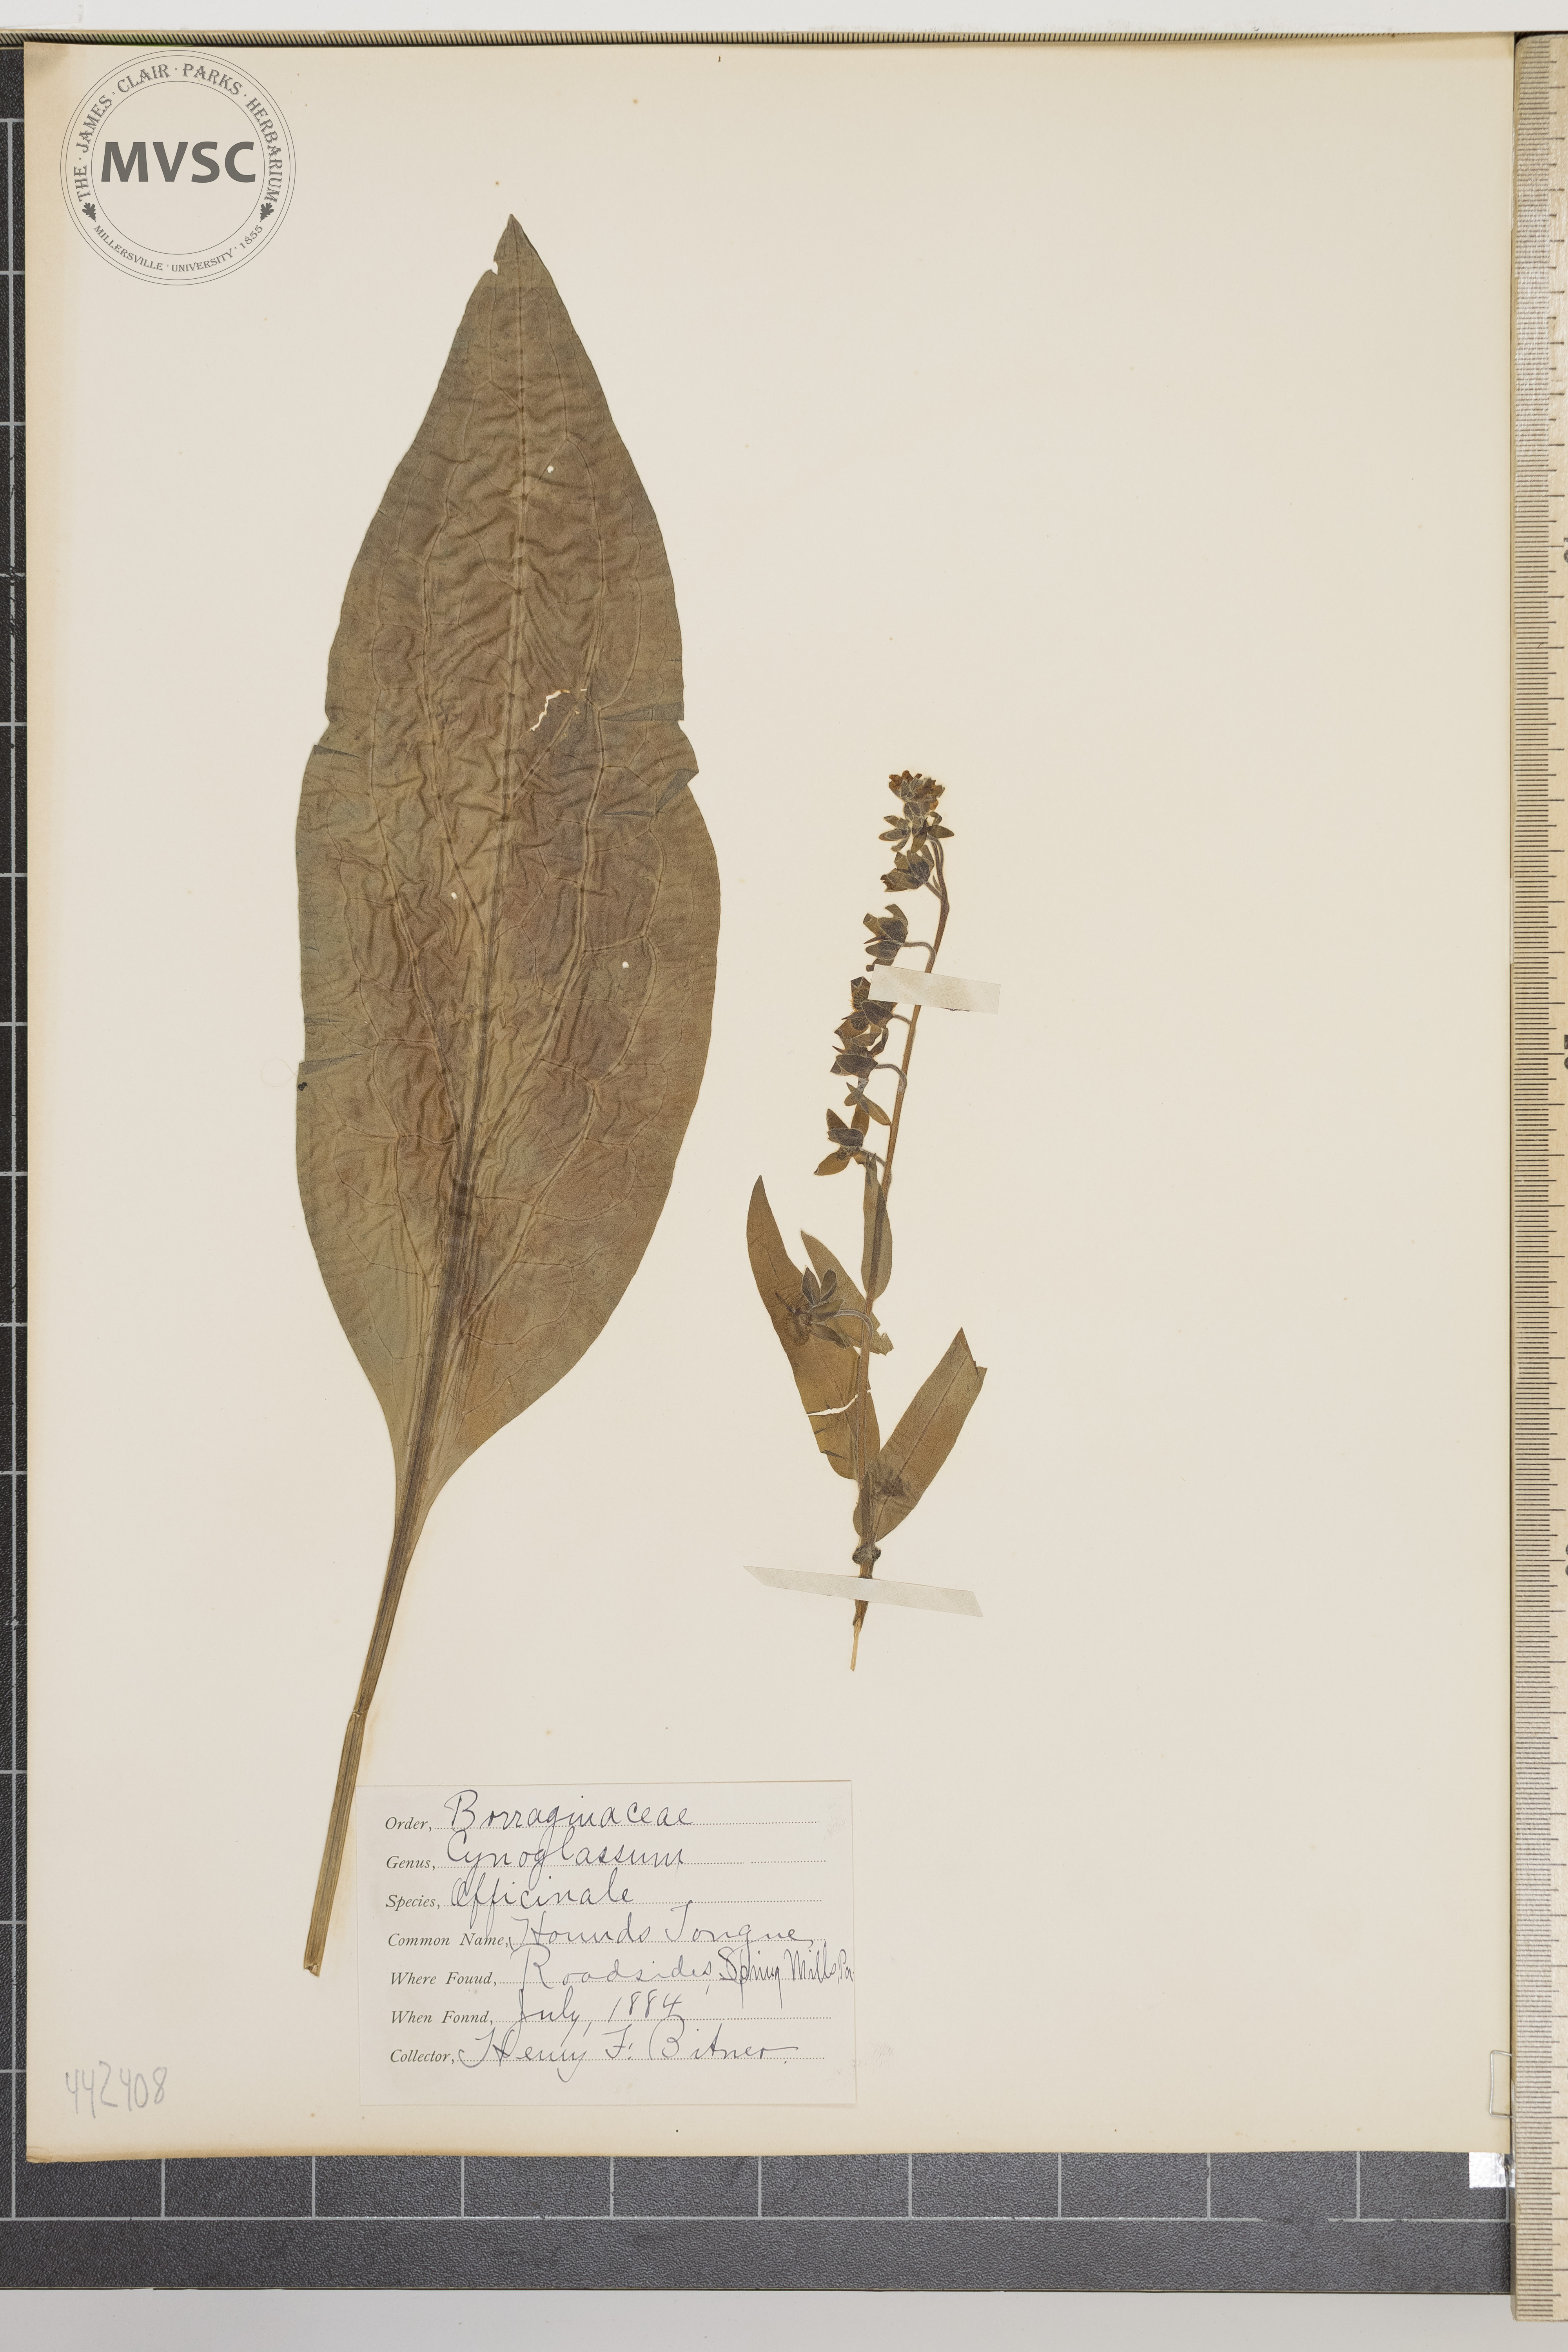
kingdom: Plantae
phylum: Tracheophyta
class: Magnoliopsida
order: Boraginales
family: Boraginaceae
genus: Cynoglossum
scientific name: Cynoglossum officinale
